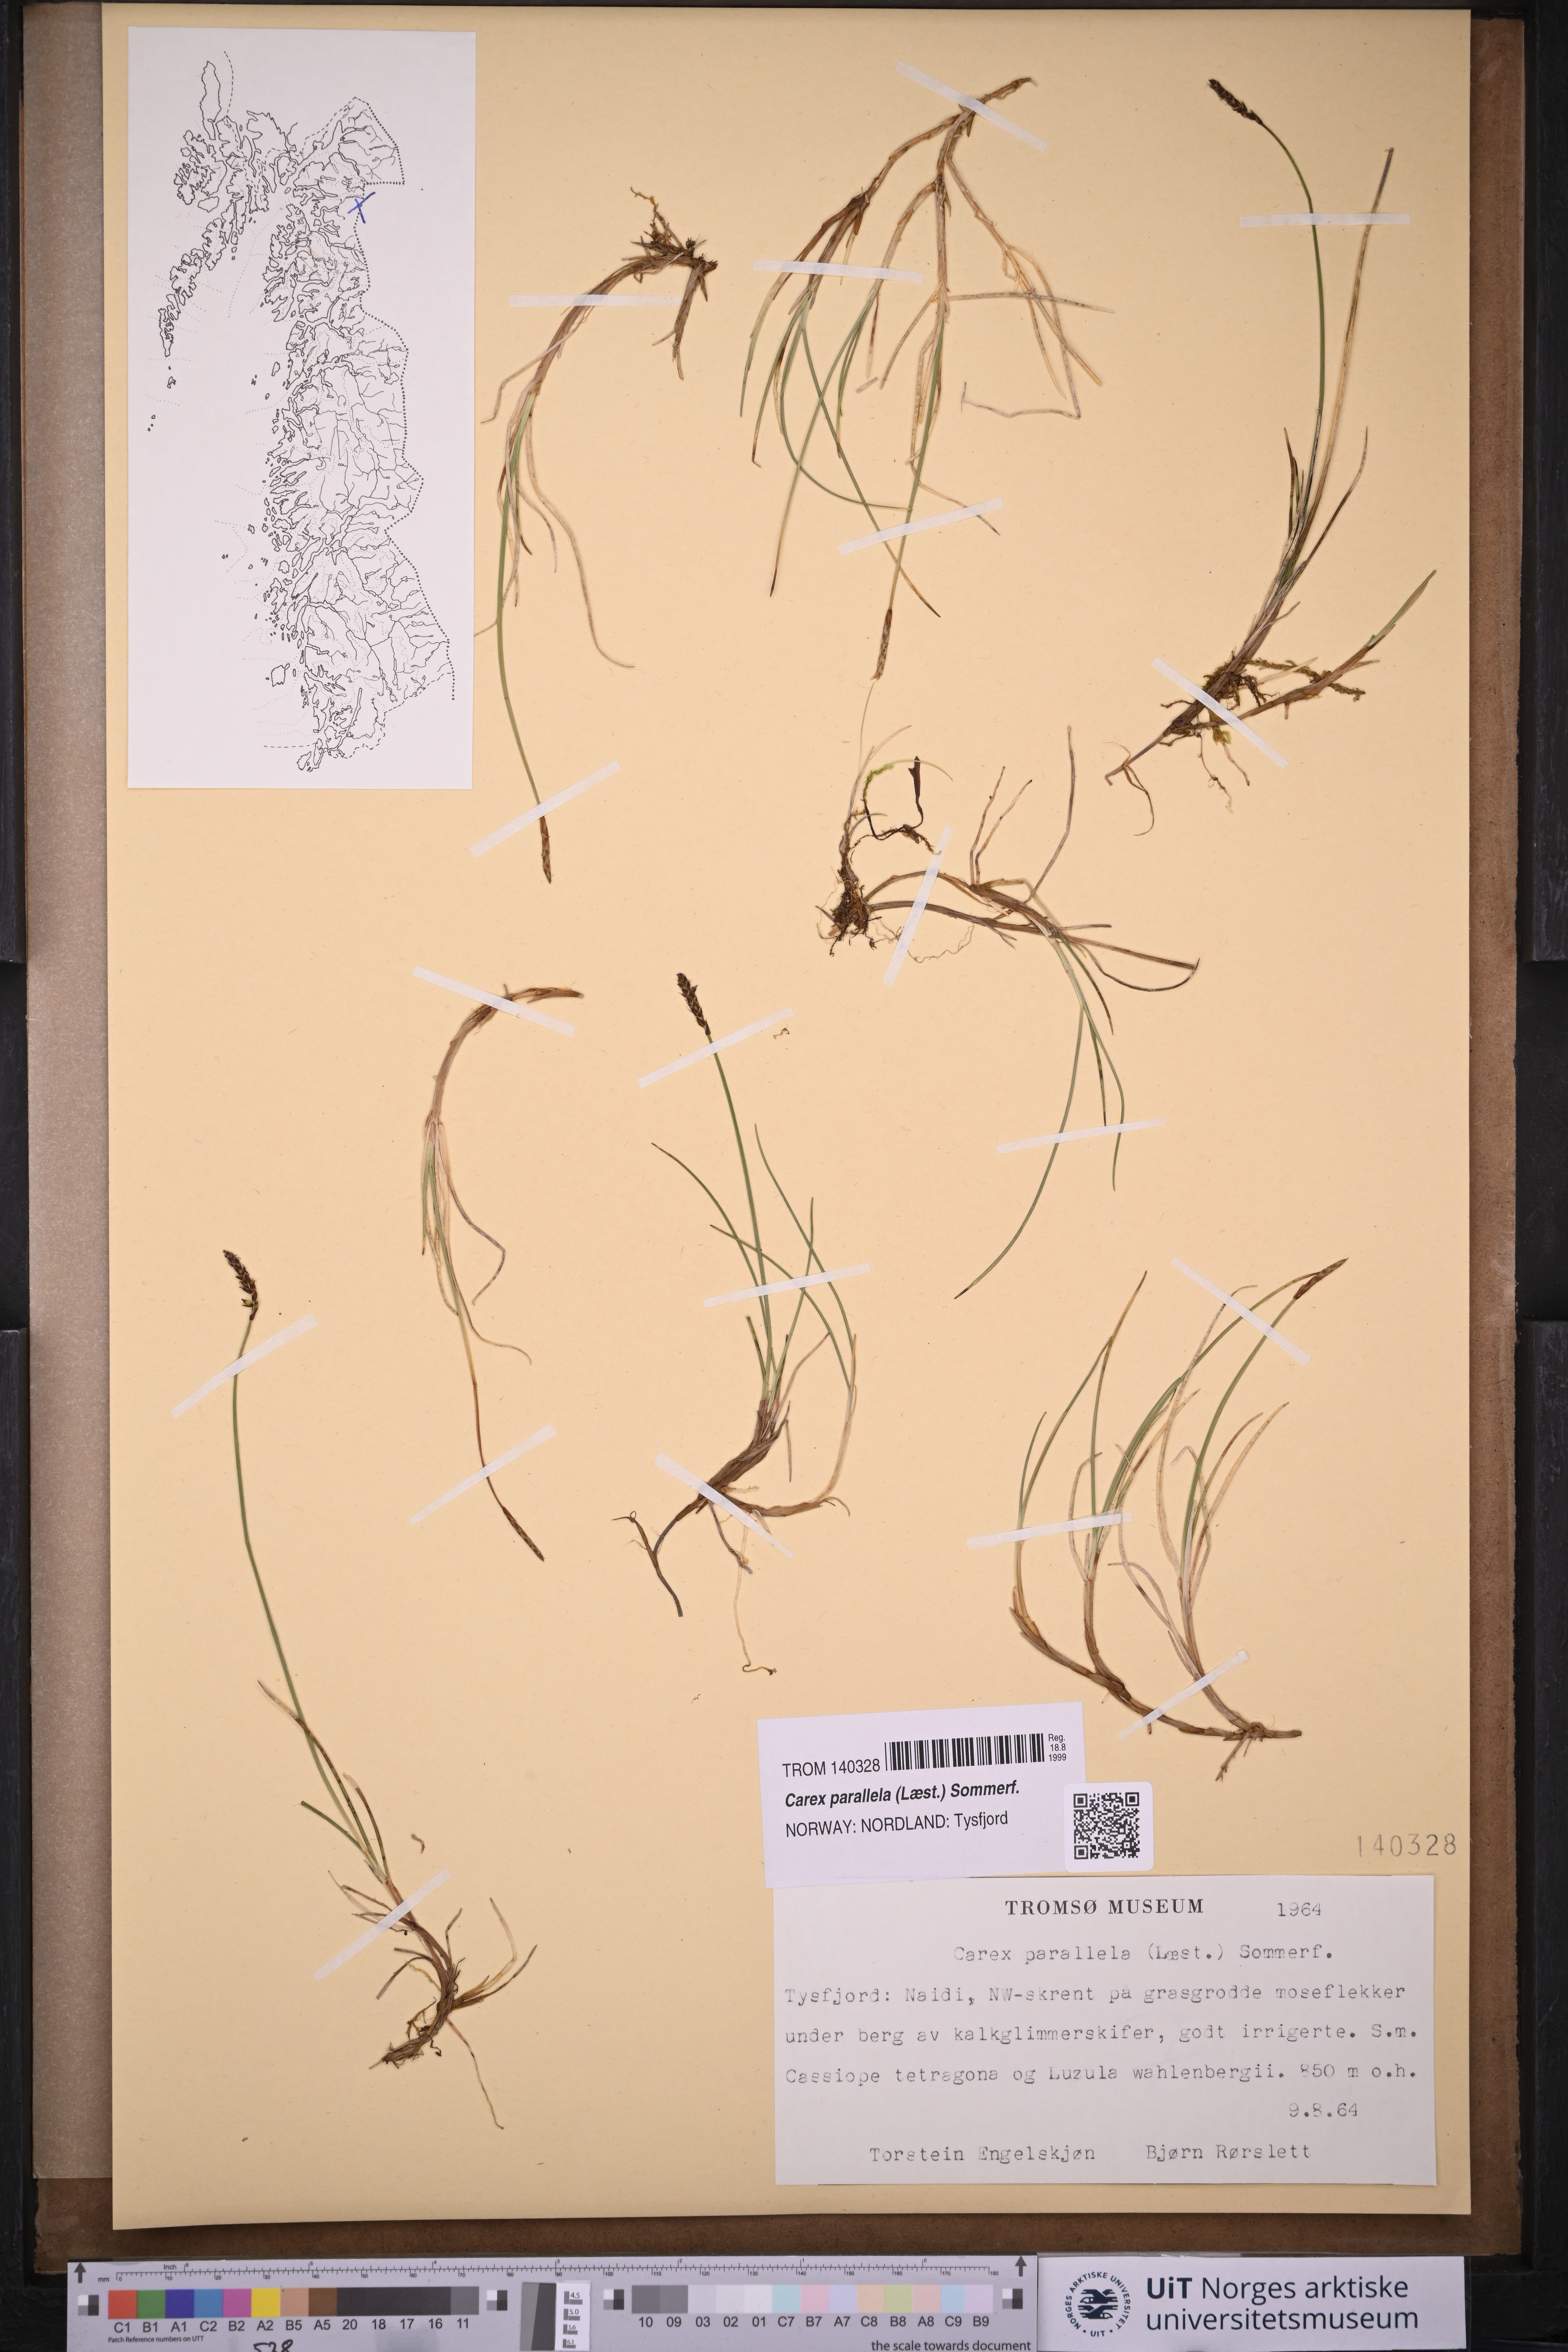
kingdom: Plantae
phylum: Tracheophyta
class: Liliopsida
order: Poales
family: Cyperaceae
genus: Carex
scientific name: Carex parallela
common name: Parallel sedge
